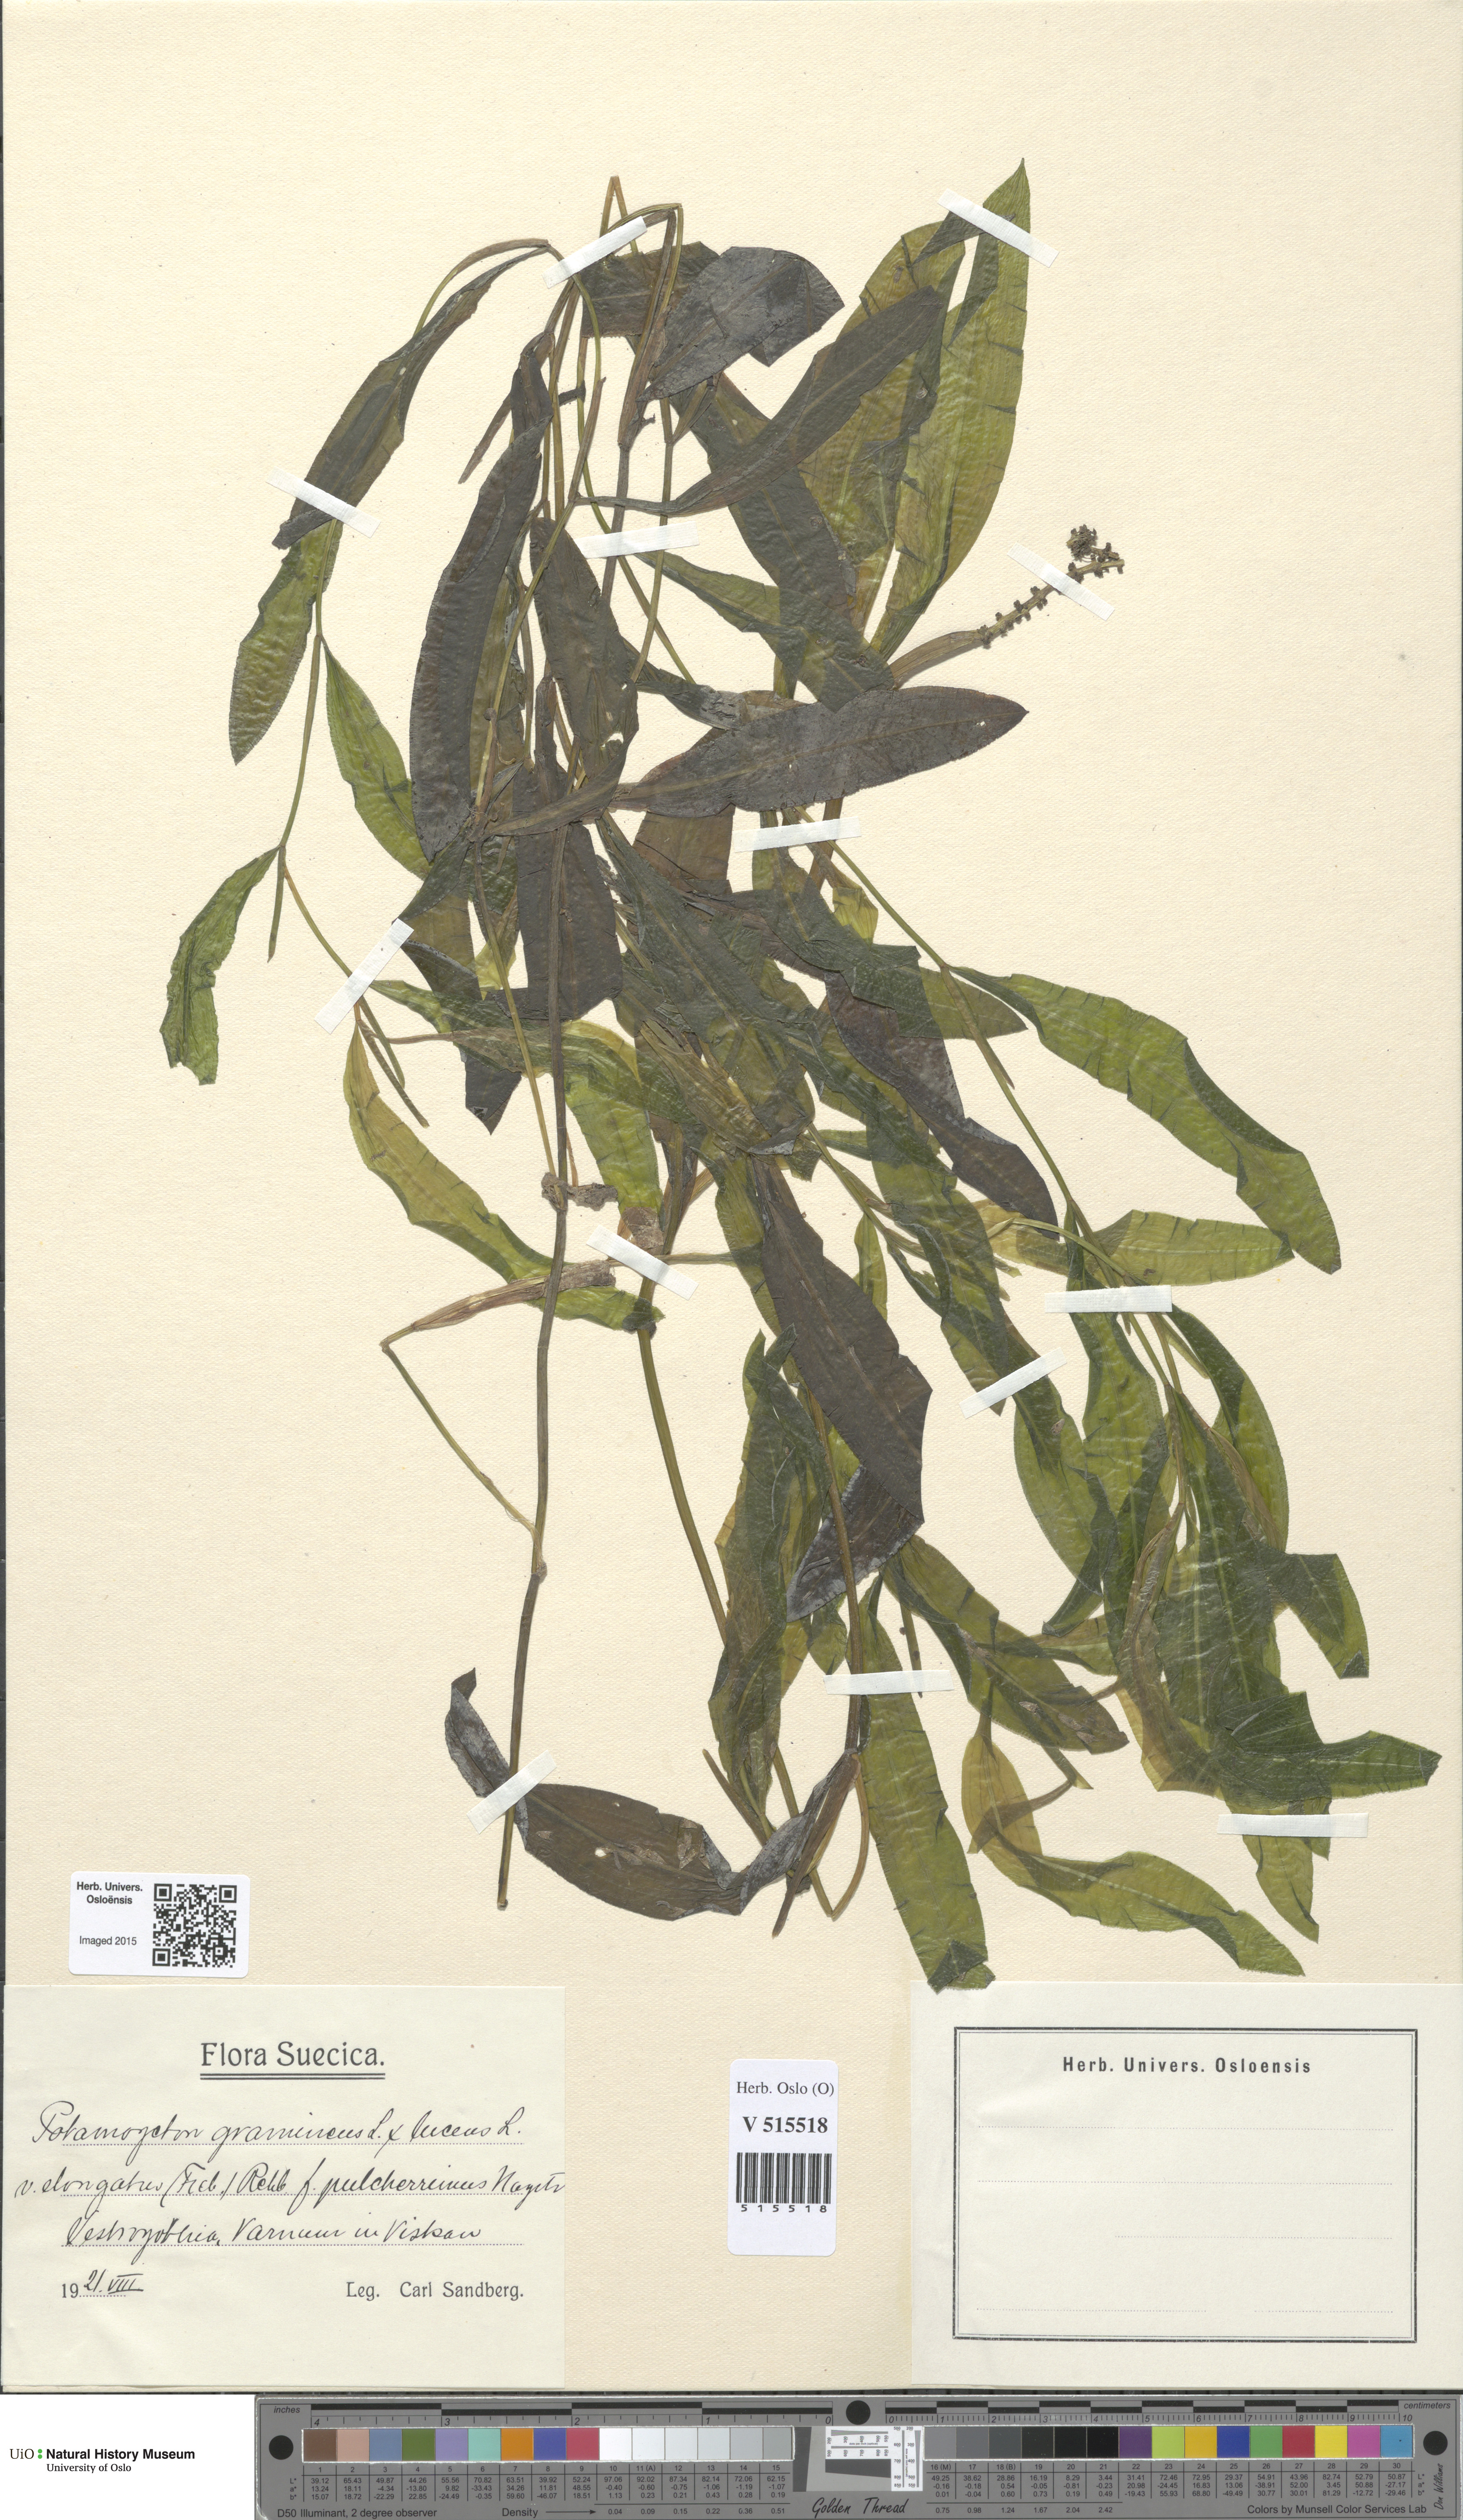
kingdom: Plantae
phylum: Tracheophyta
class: Liliopsida
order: Alismatales
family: Potamogetonaceae
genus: Potamogeton
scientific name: Potamogeton
